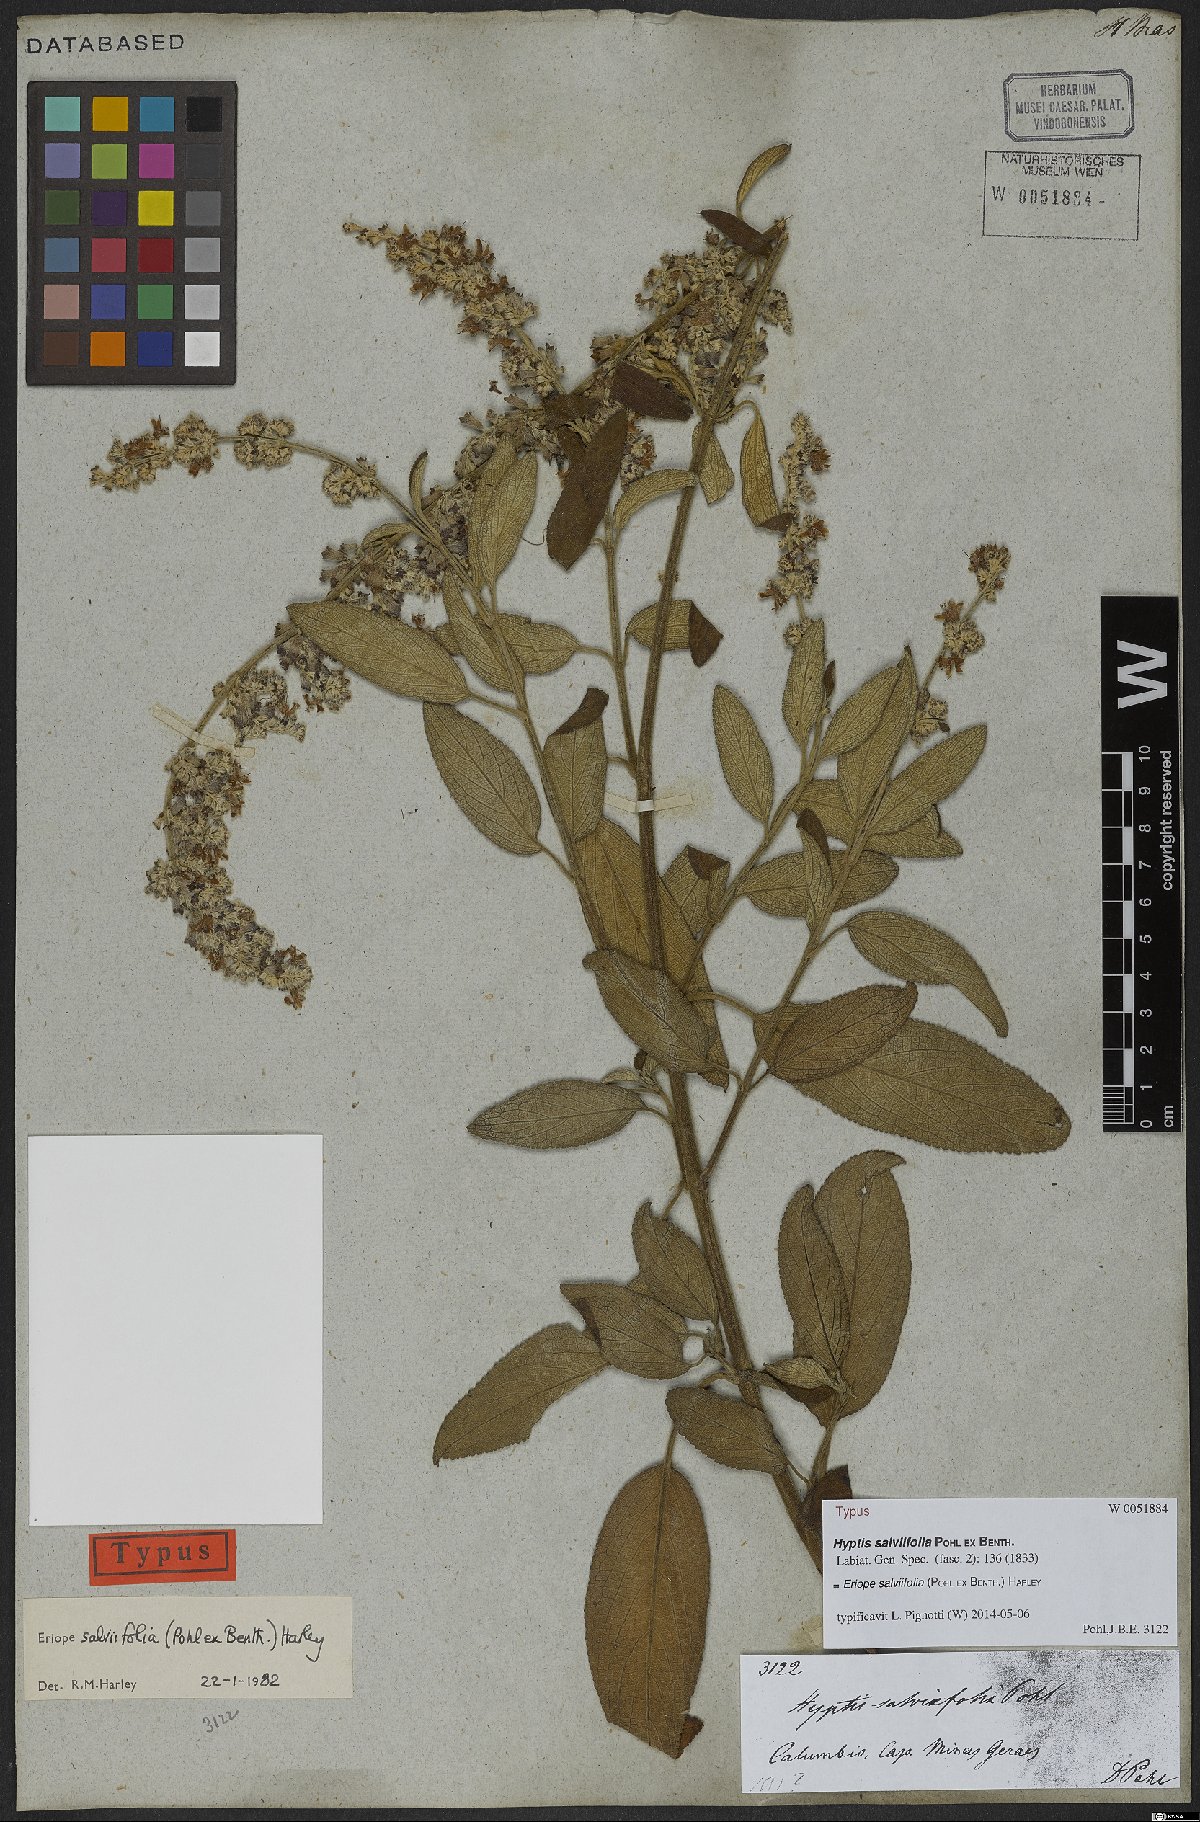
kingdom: Plantae
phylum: Tracheophyta
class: Magnoliopsida
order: Lamiales
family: Lamiaceae
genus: Eriope
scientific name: Eriope salviifolia
